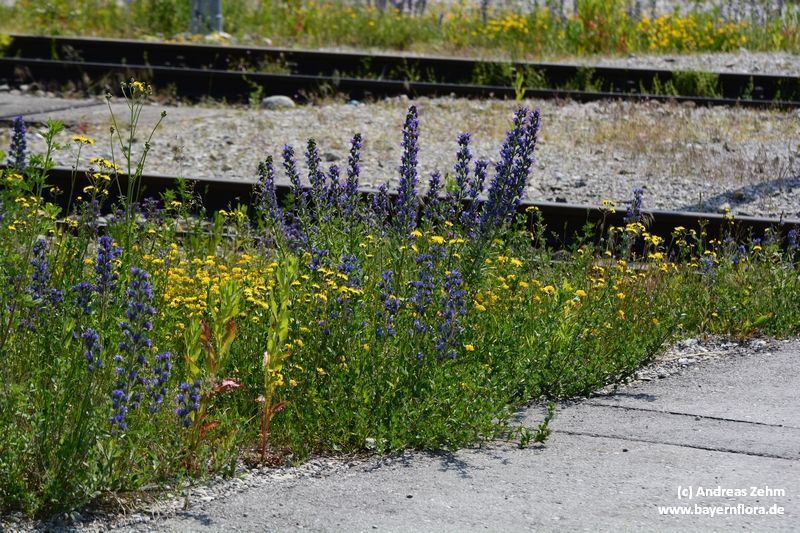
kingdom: Plantae
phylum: Tracheophyta
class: Magnoliopsida
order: Boraginales
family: Boraginaceae
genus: Echium
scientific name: Echium vulgare
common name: Common viper's bugloss
